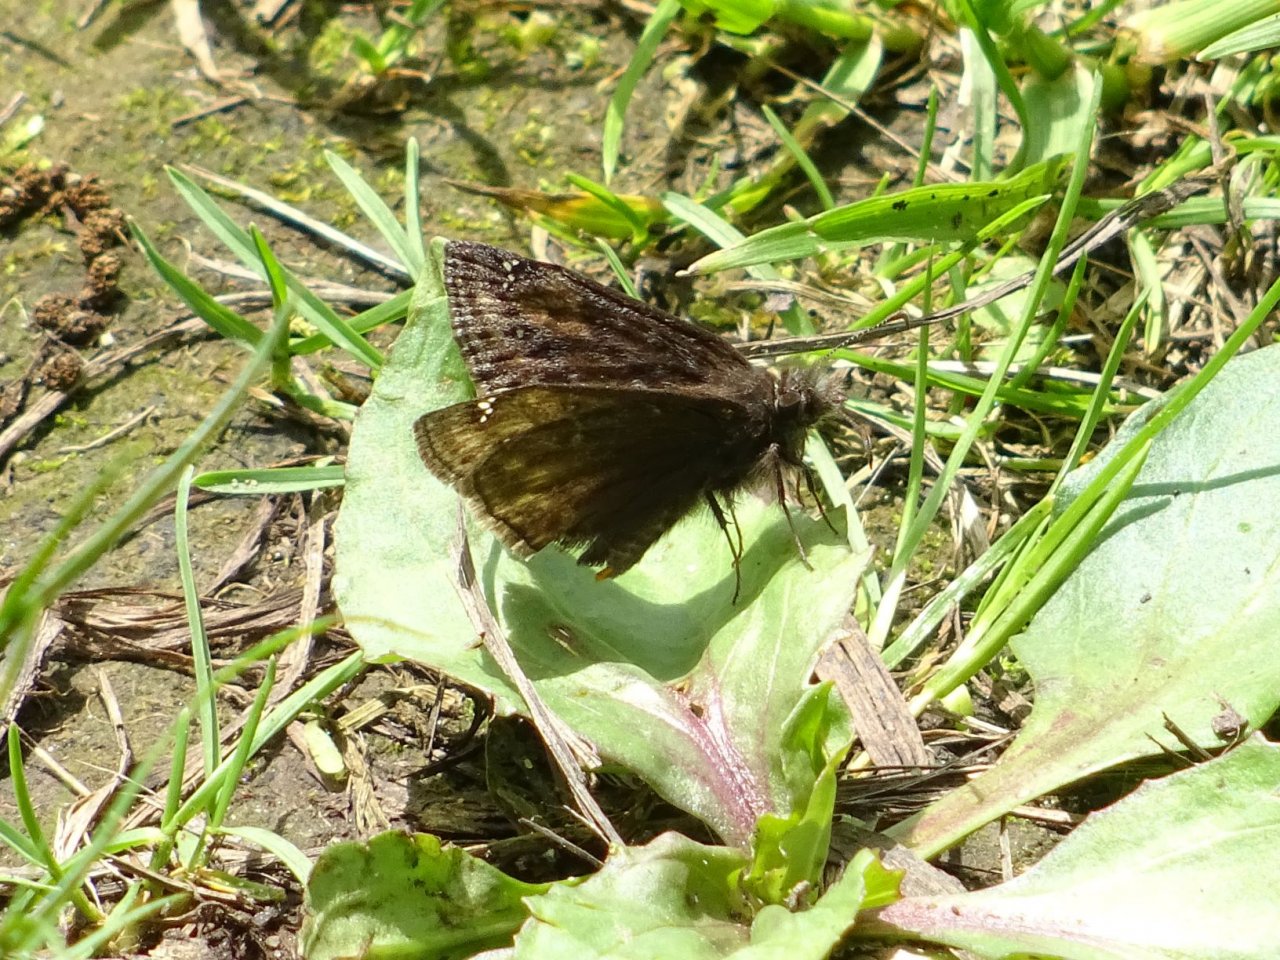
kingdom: Animalia
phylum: Arthropoda
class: Insecta
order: Lepidoptera
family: Hesperiidae
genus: Gesta
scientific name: Gesta
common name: Wild Indigo Duskywing
